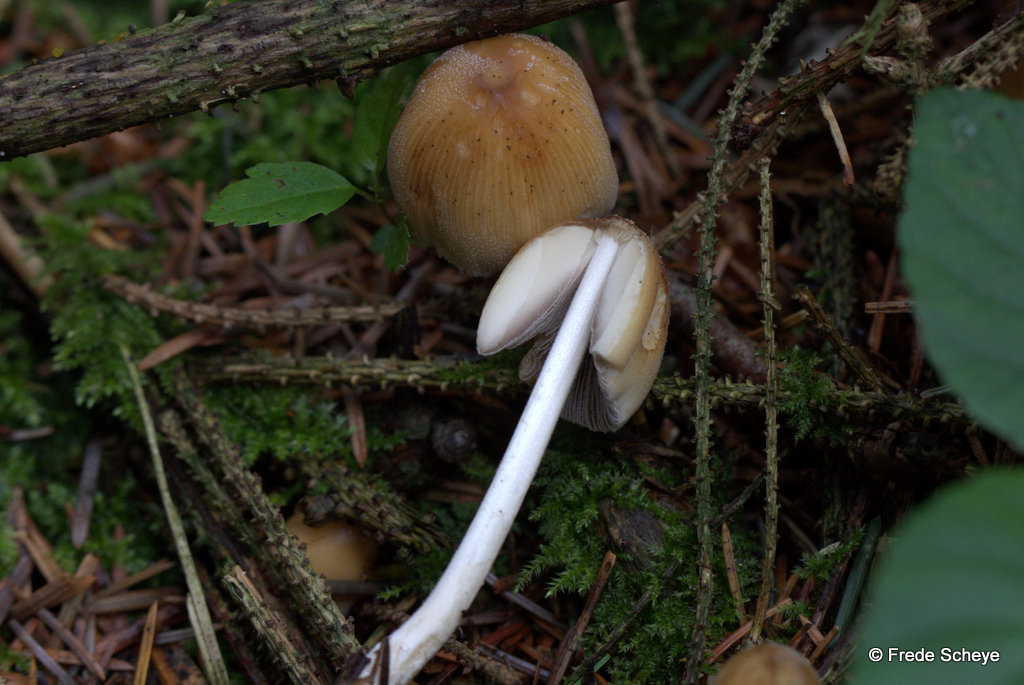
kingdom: Fungi
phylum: Basidiomycota
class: Agaricomycetes
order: Agaricales
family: Psathyrellaceae
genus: Coprinellus
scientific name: Coprinellus micaceus
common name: glimmer-blækhat
